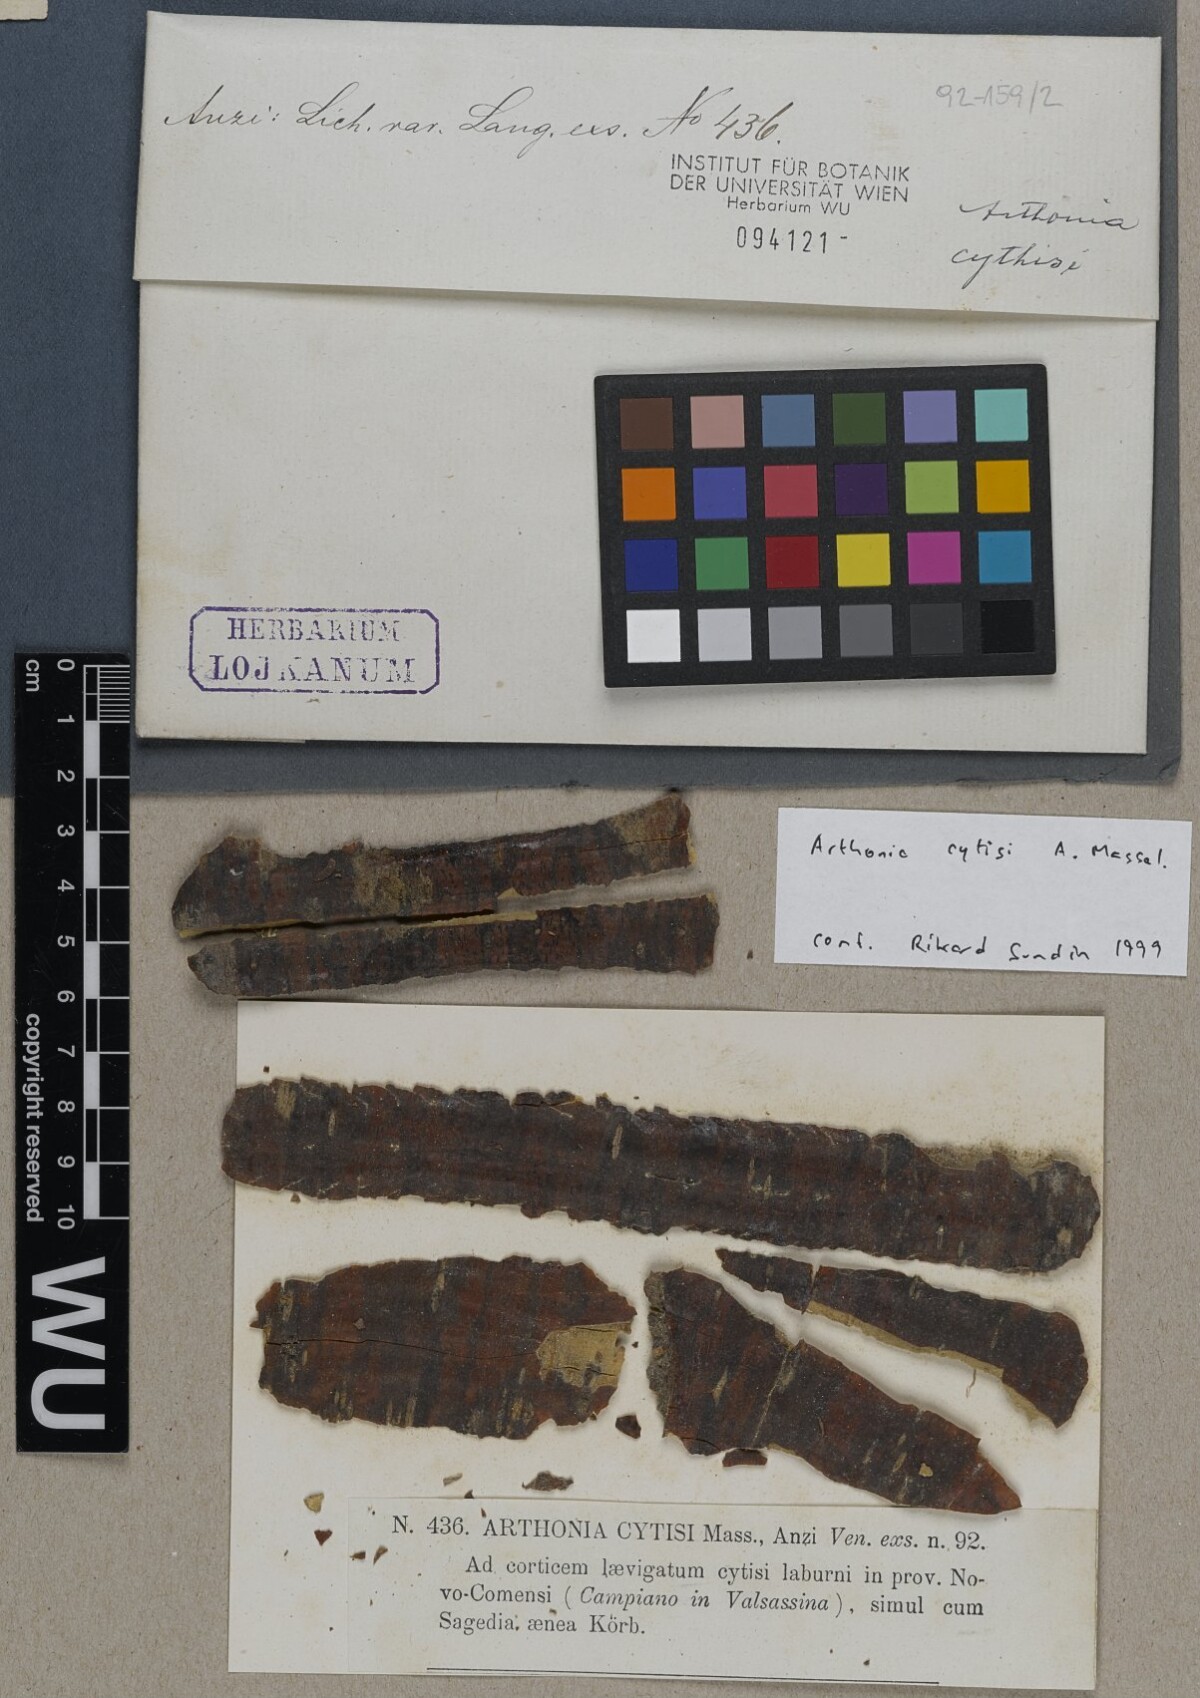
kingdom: Fungi
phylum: Ascomycota
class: Arthoniomycetes
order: Arthoniales
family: Arthoniaceae
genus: Naevia
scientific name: Naevia dispersa
